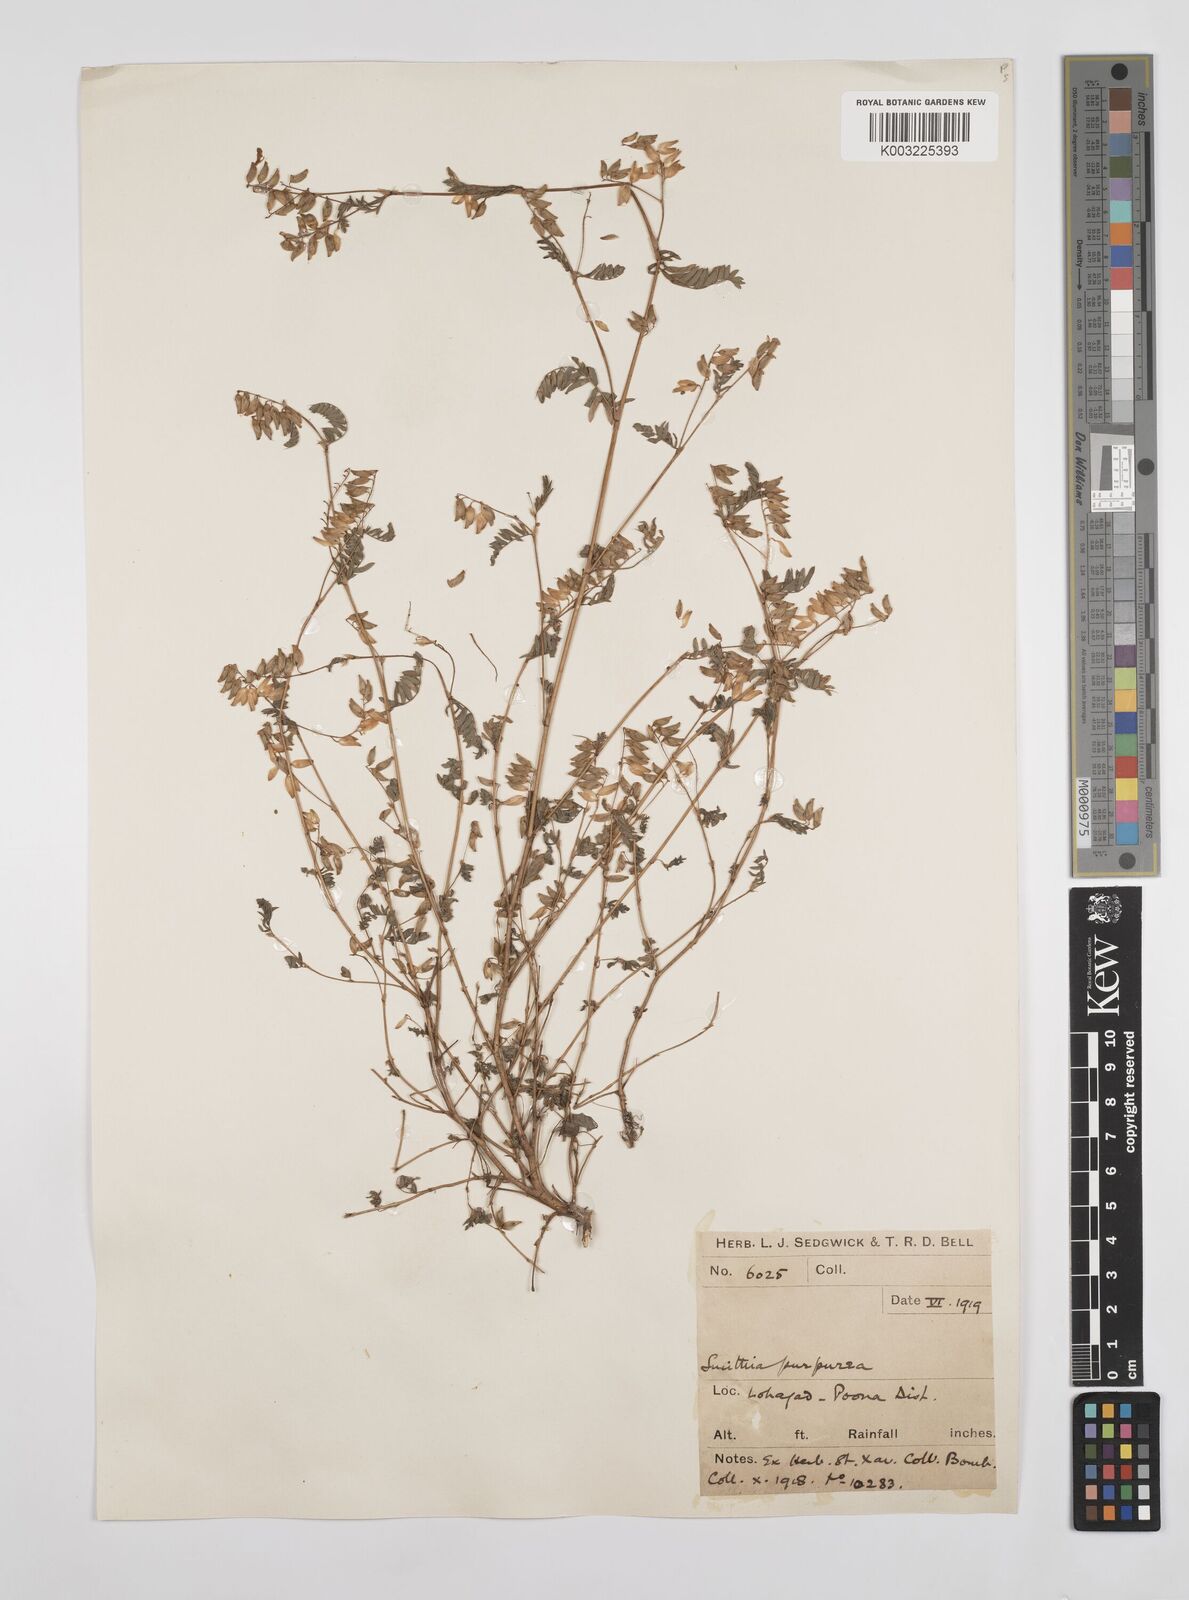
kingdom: Plantae
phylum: Tracheophyta
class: Magnoliopsida
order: Fabales
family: Fabaceae
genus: Smithia
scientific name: Smithia purpurea
